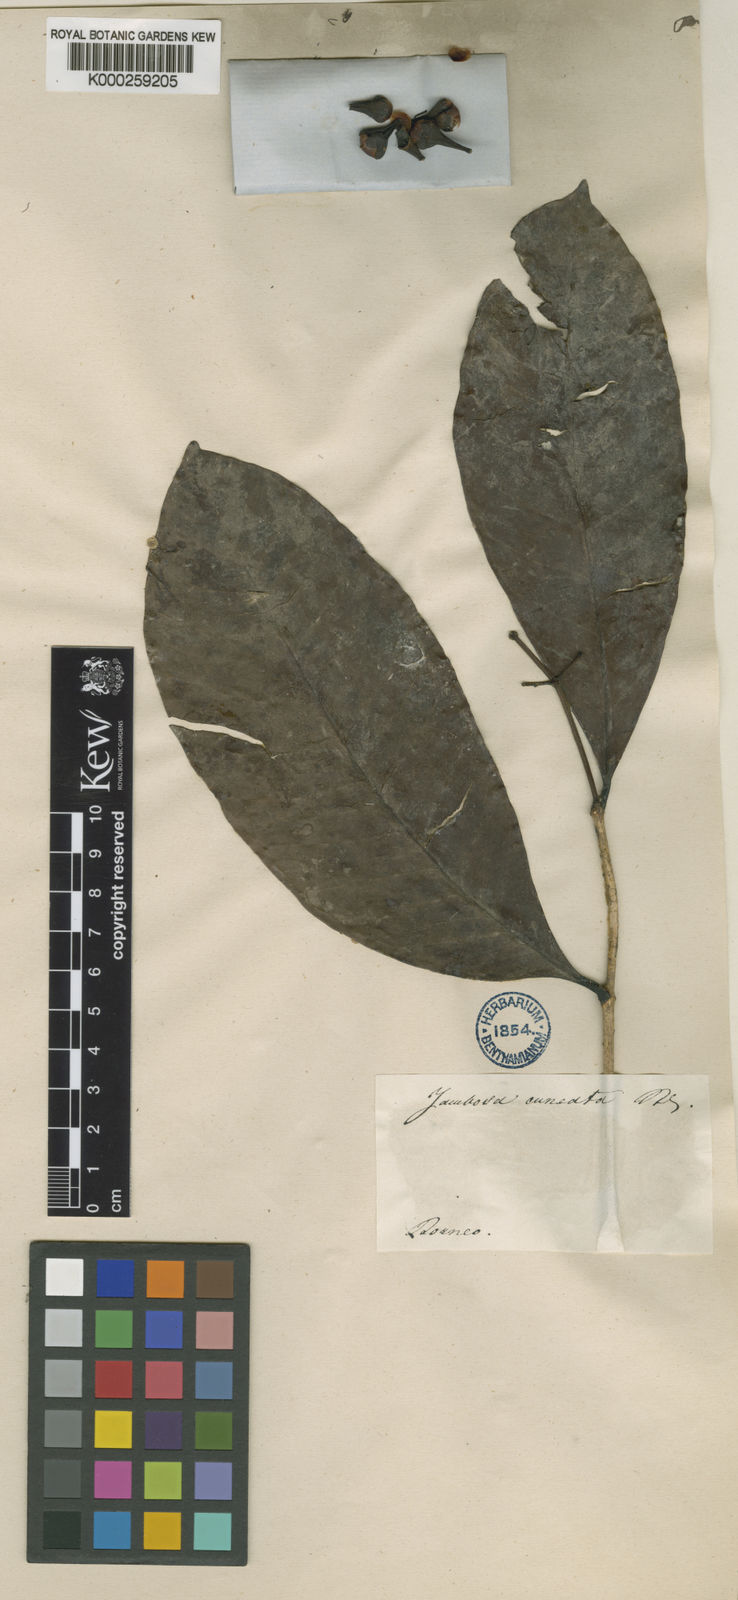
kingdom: Plantae
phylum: Tracheophyta
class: Magnoliopsida
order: Myrtales
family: Myrtaceae
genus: Syzygium
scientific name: Syzygium leucophloium
